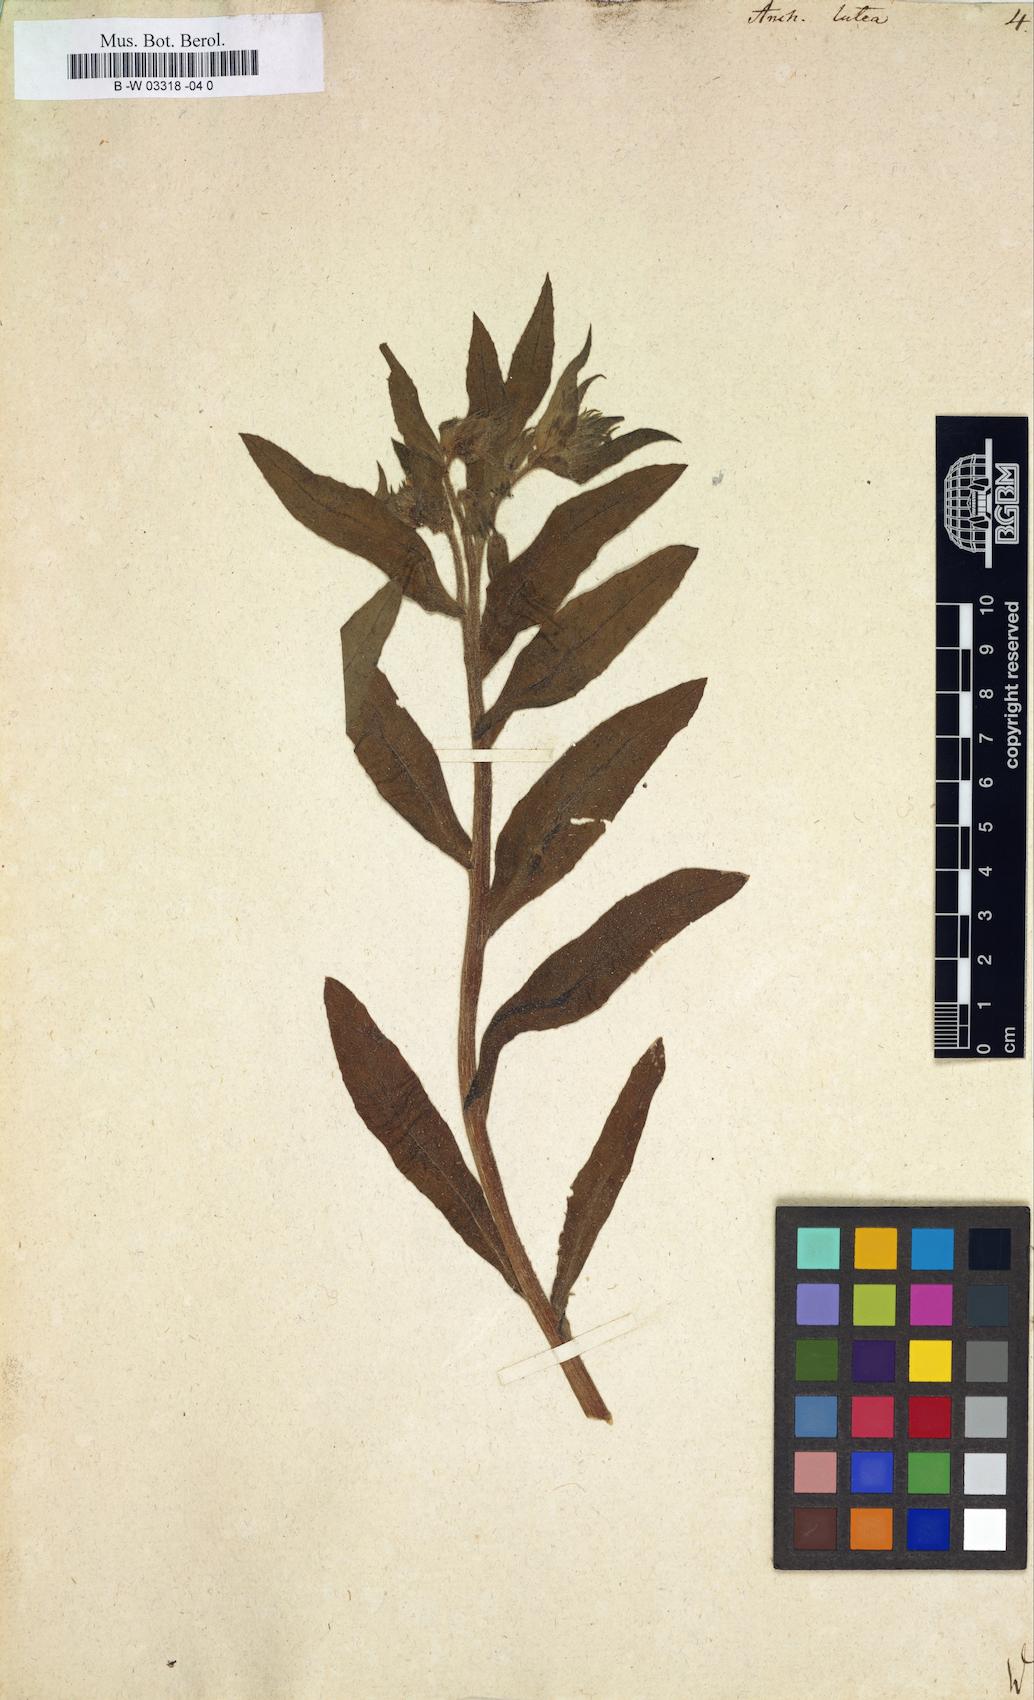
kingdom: Plantae
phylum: Tracheophyta
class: Magnoliopsida
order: Boraginales
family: Boraginaceae
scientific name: Boraginaceae
